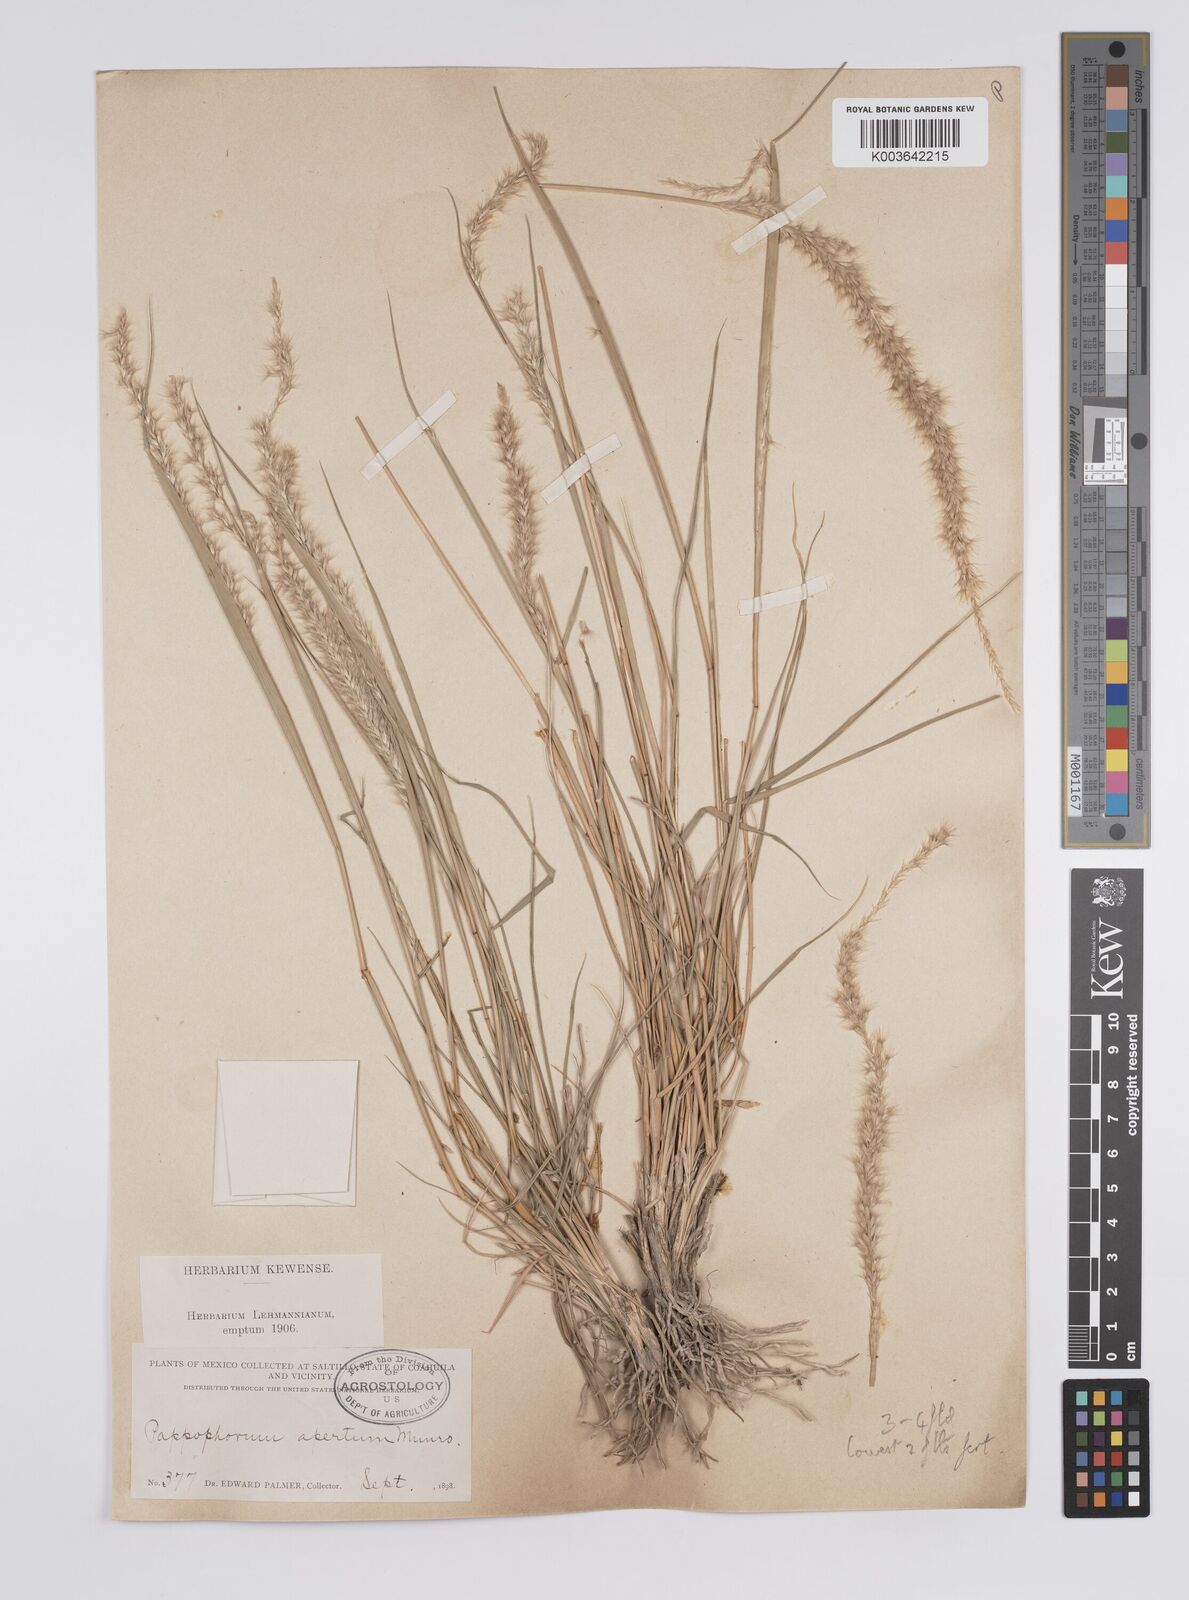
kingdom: Plantae
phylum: Tracheophyta
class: Liliopsida
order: Poales
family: Poaceae
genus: Pappophorum
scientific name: Pappophorum mucronulatum
